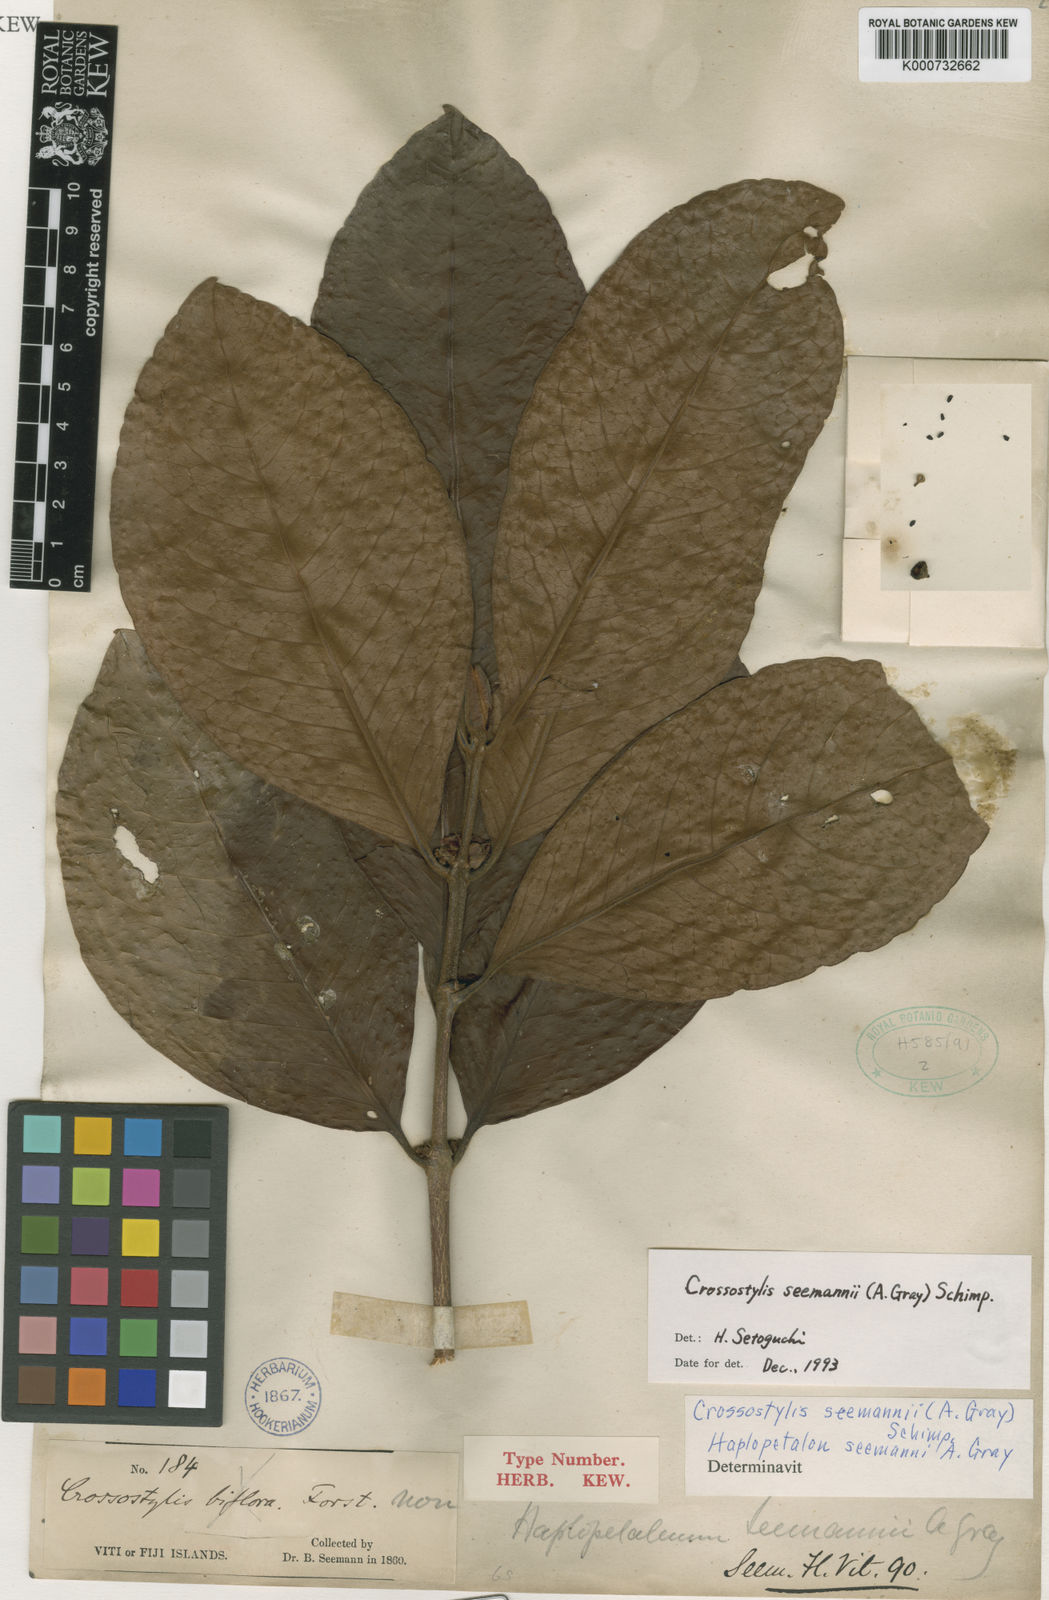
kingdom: Plantae
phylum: Tracheophyta
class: Magnoliopsida
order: Malpighiales
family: Rhizophoraceae
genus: Crossostylis
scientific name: Crossostylis seemannii
